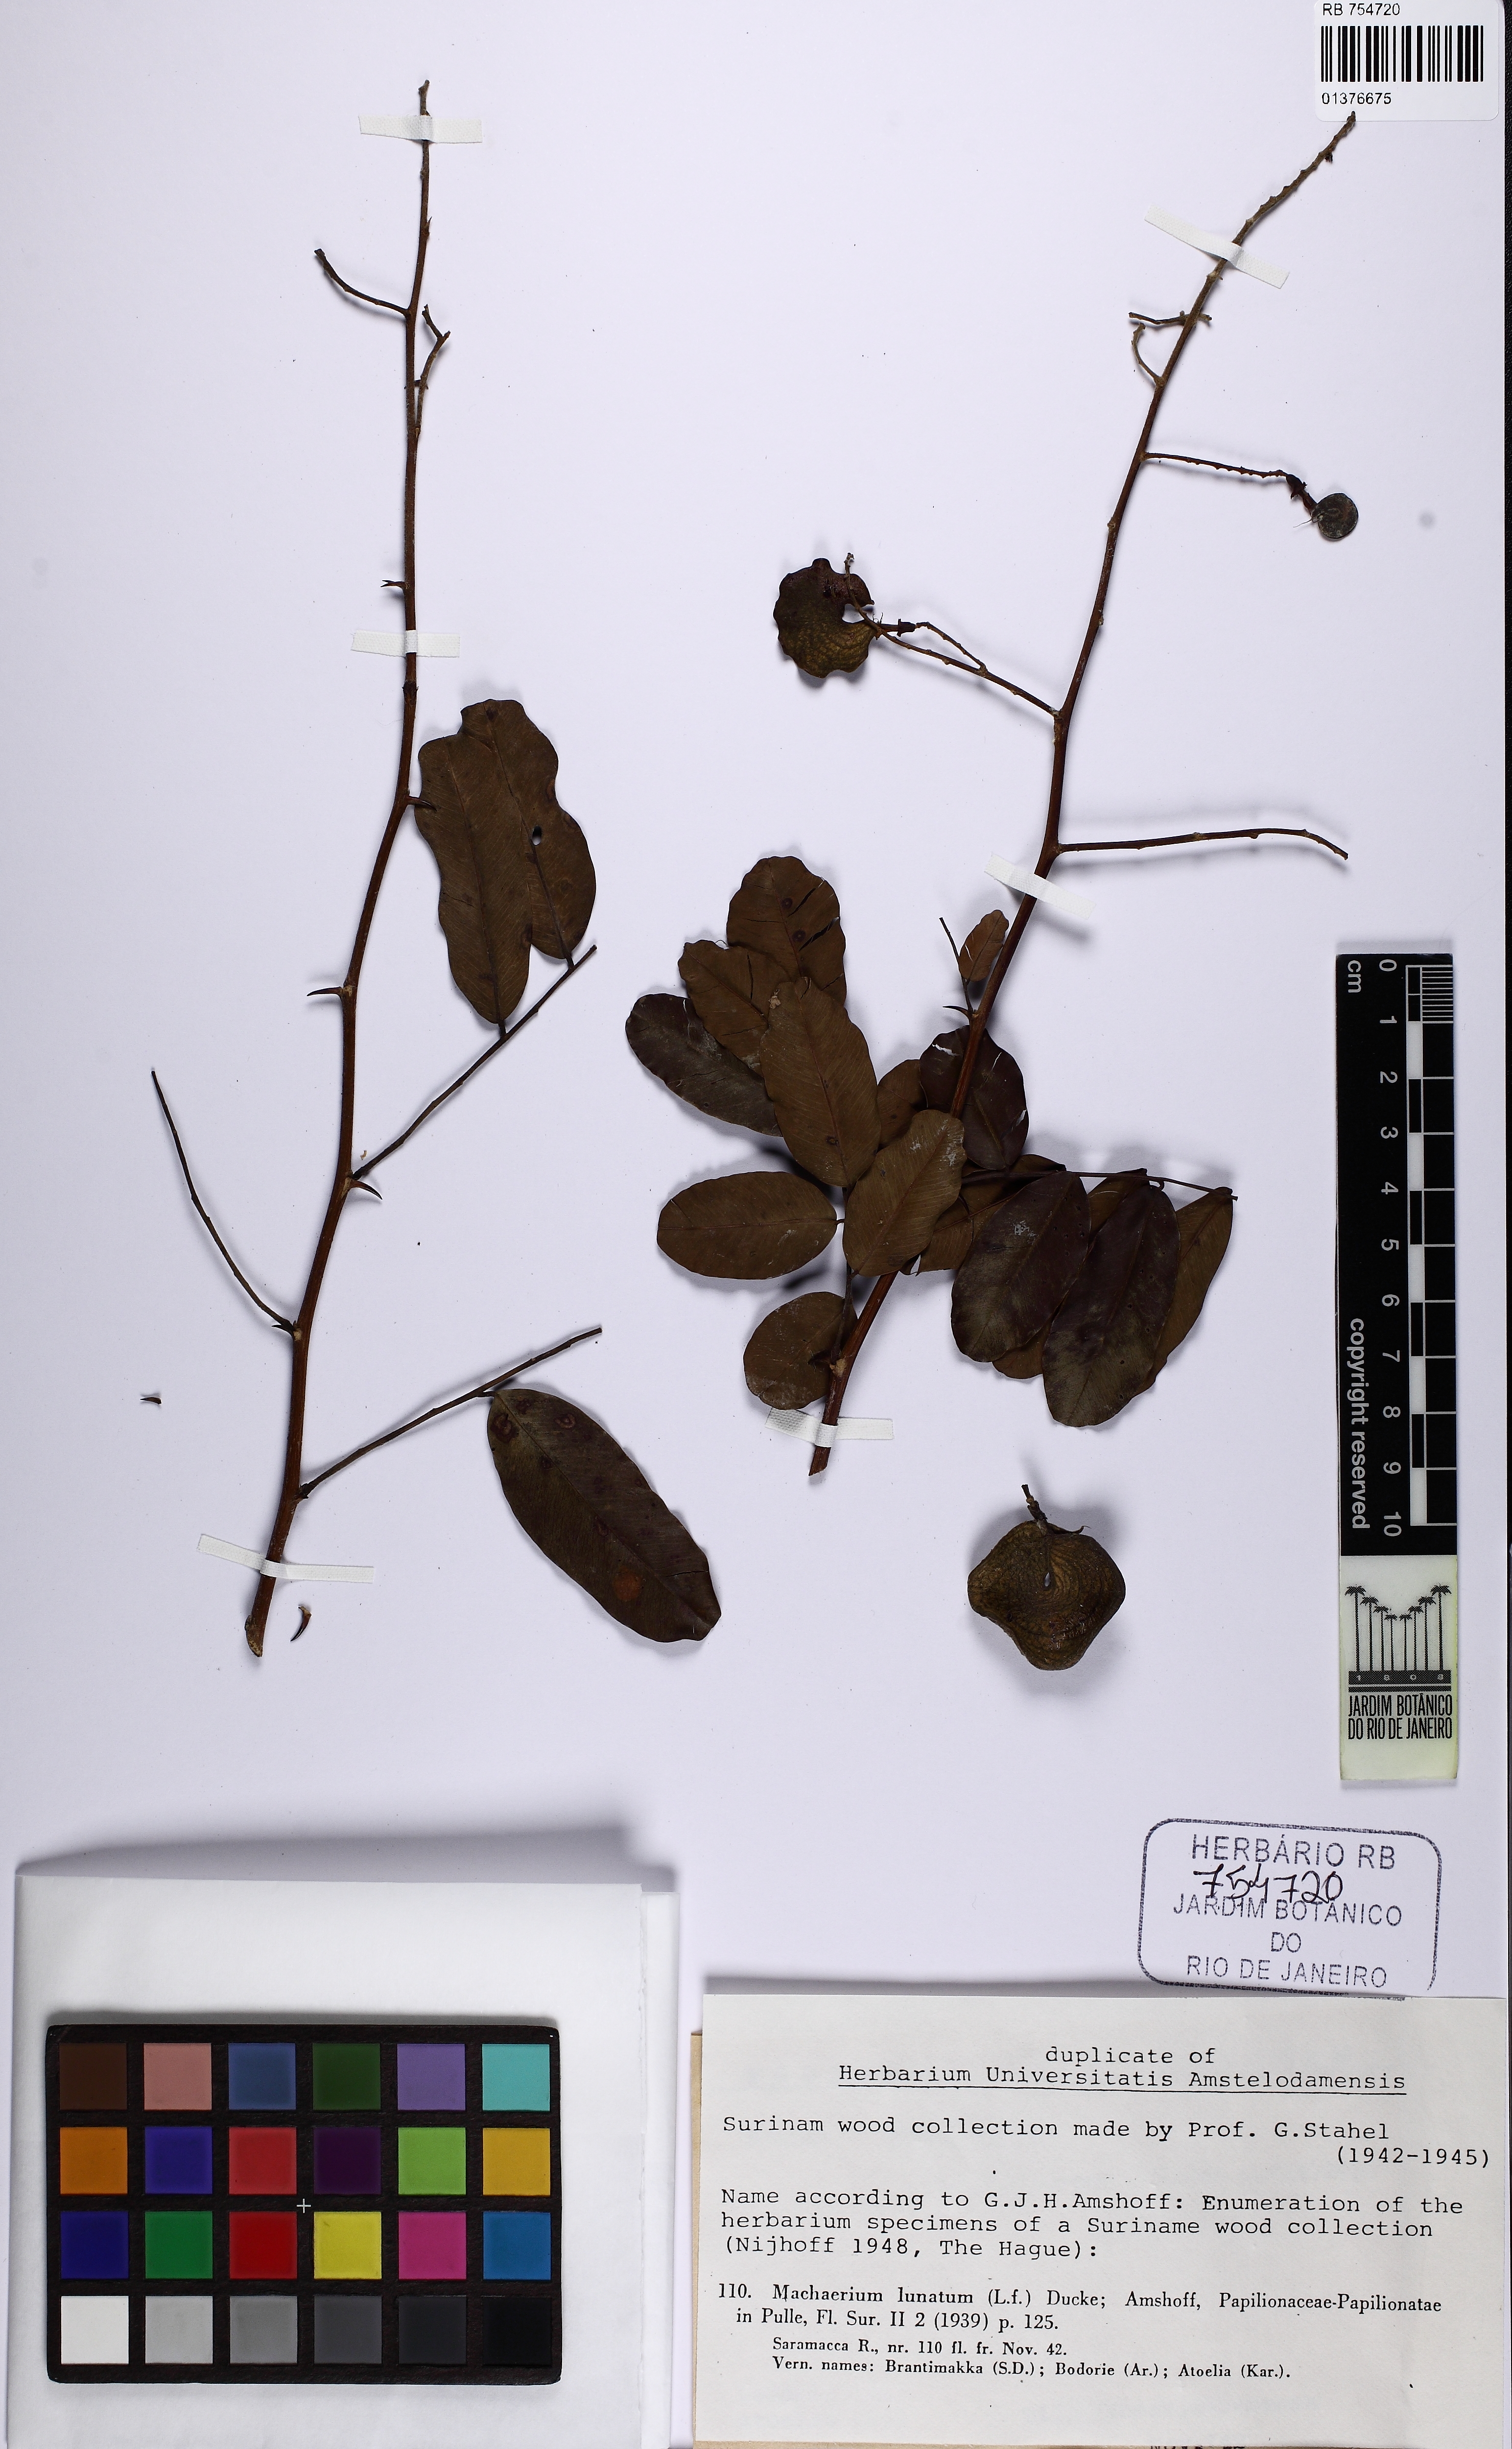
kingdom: Plantae
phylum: Tracheophyta
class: Magnoliopsida
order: Fabales
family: Fabaceae
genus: Machaerium
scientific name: Machaerium lunatum
